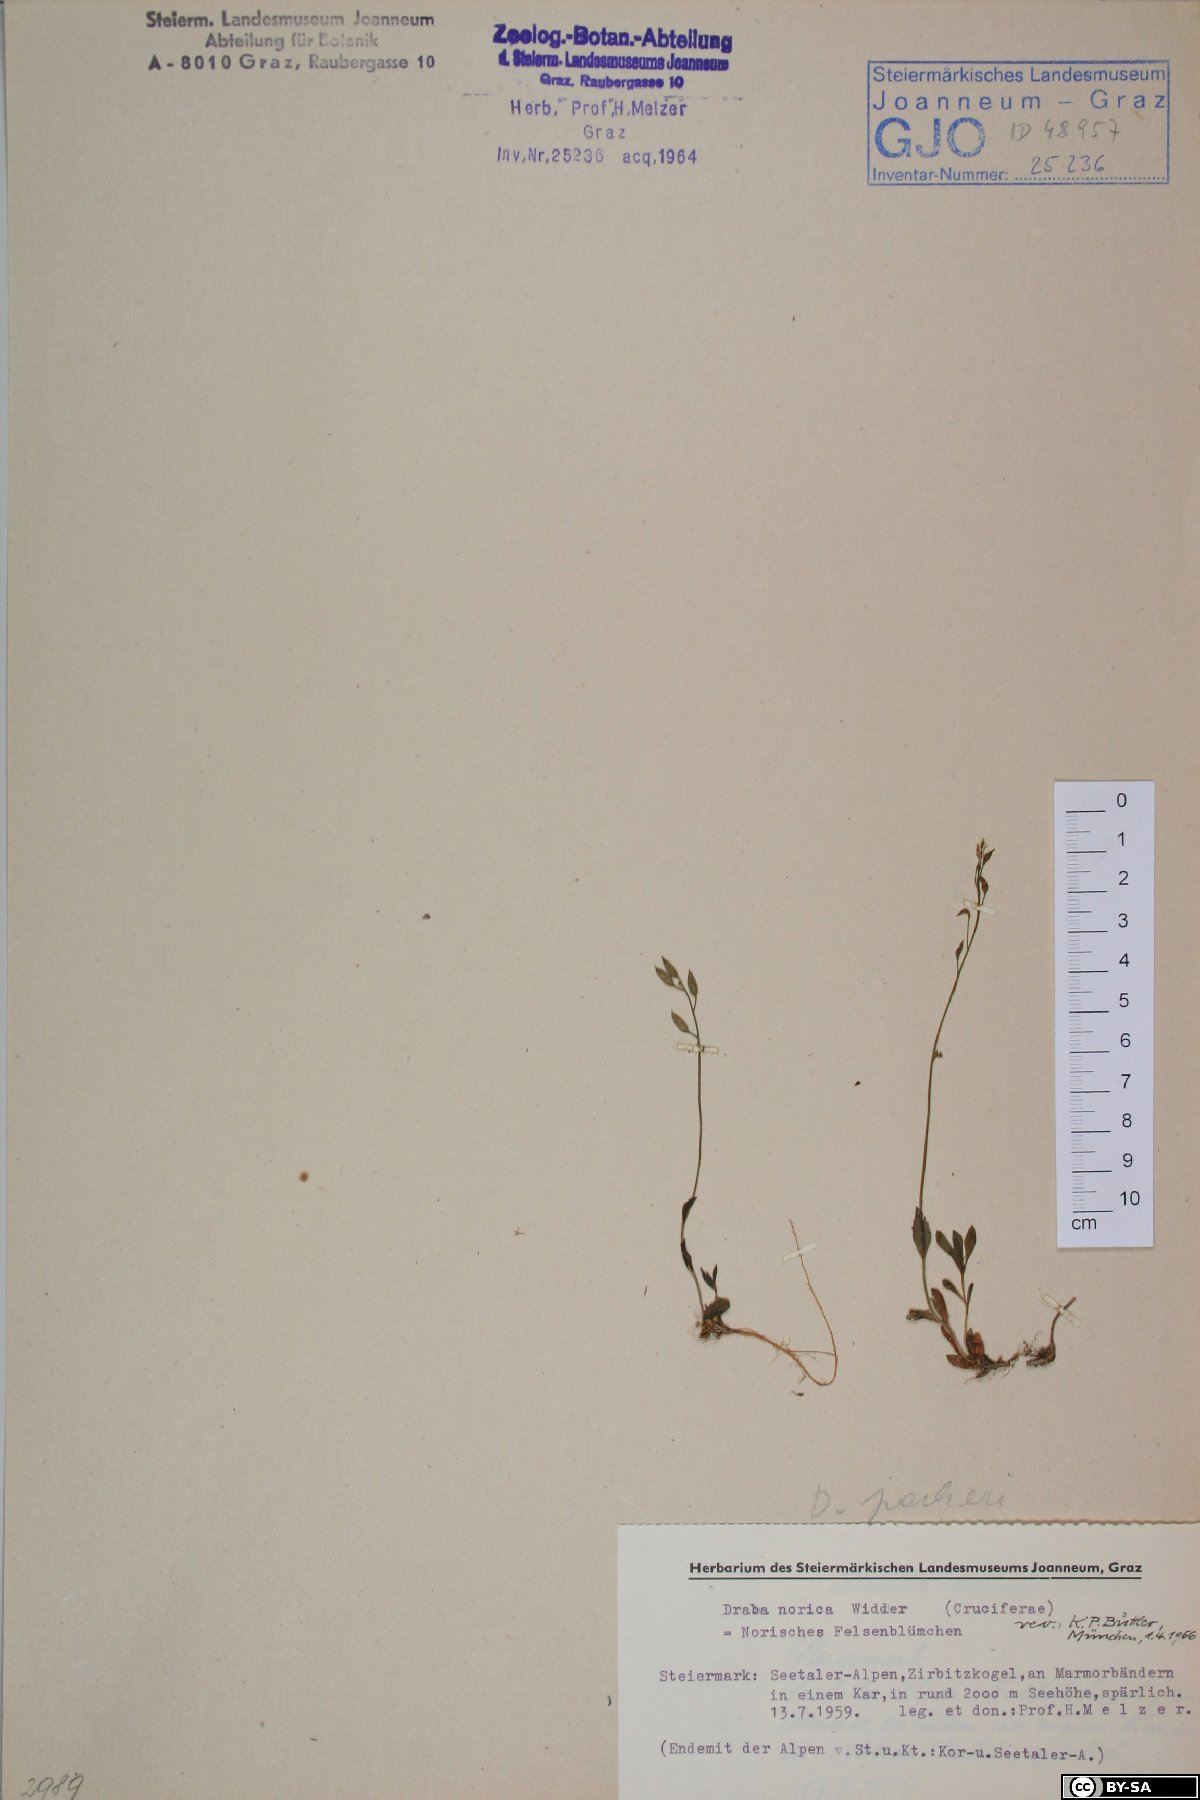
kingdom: Plantae
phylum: Tracheophyta
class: Magnoliopsida
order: Brassicales
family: Brassicaceae
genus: Draba
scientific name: Draba pacheri
